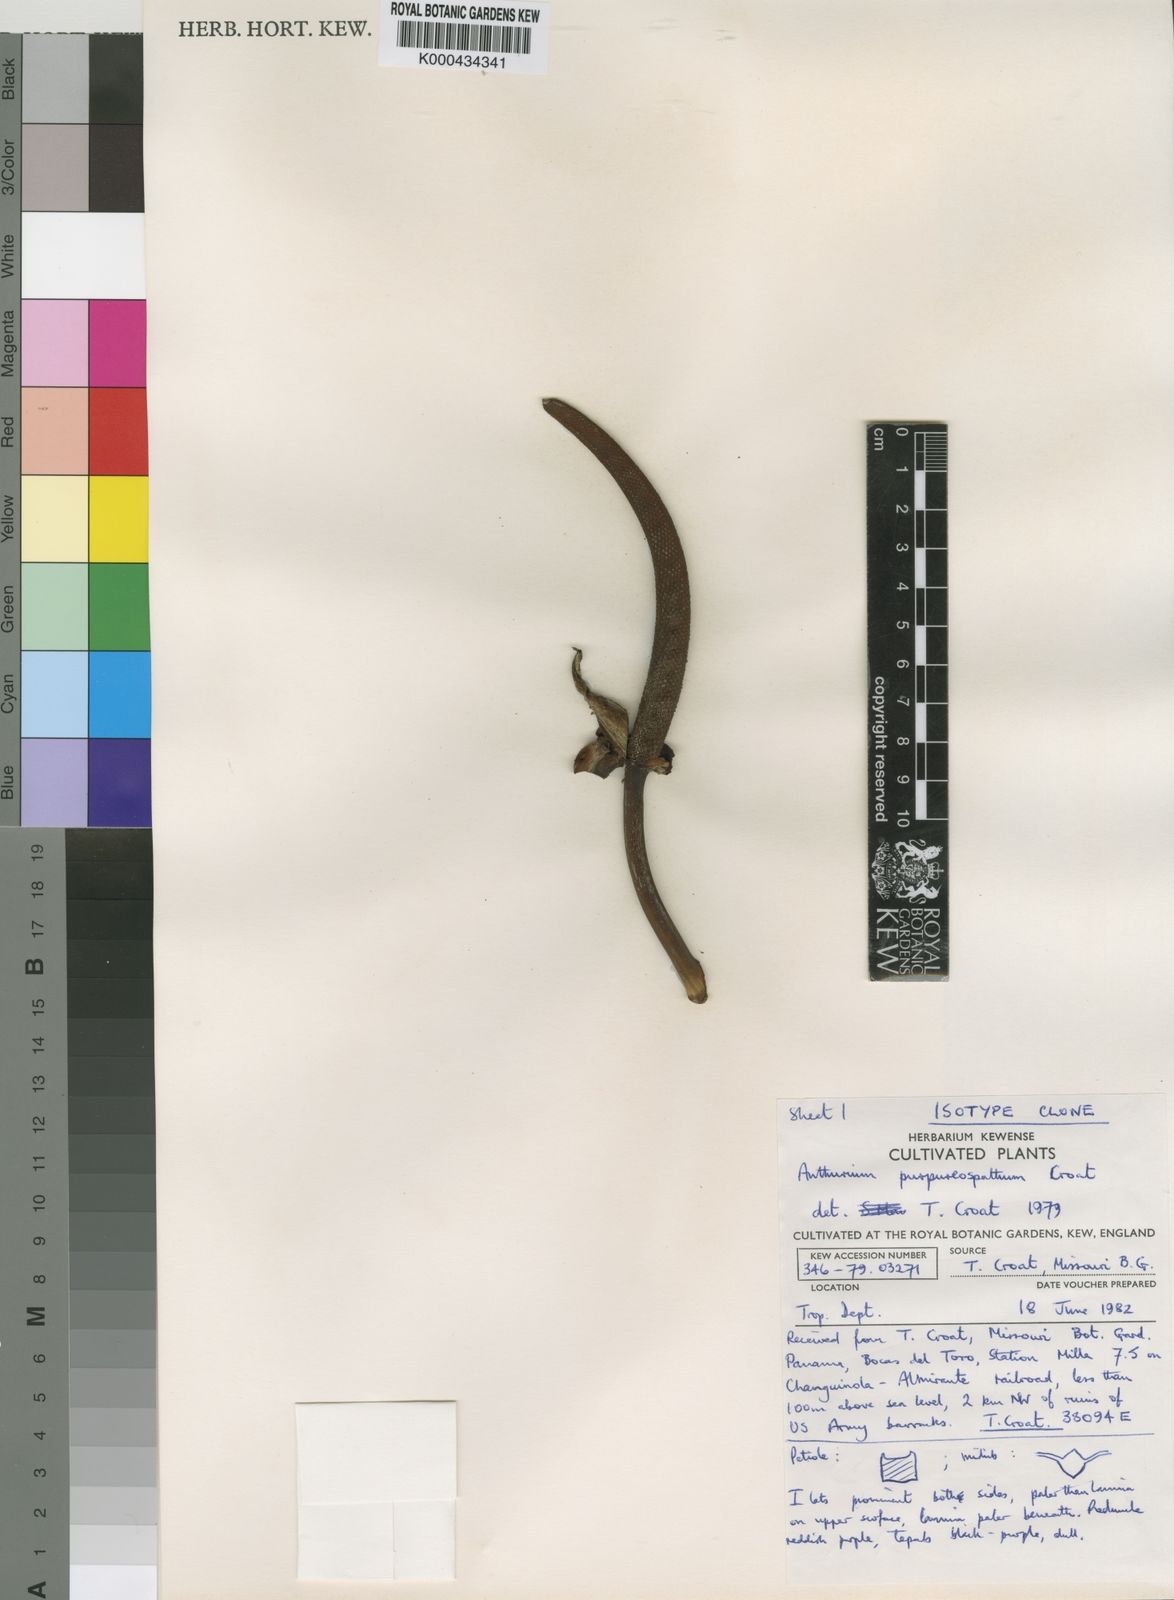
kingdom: Plantae
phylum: Tracheophyta
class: Liliopsida
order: Alismatales
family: Araceae
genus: Anthurium
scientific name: Anthurium purpureospathum
